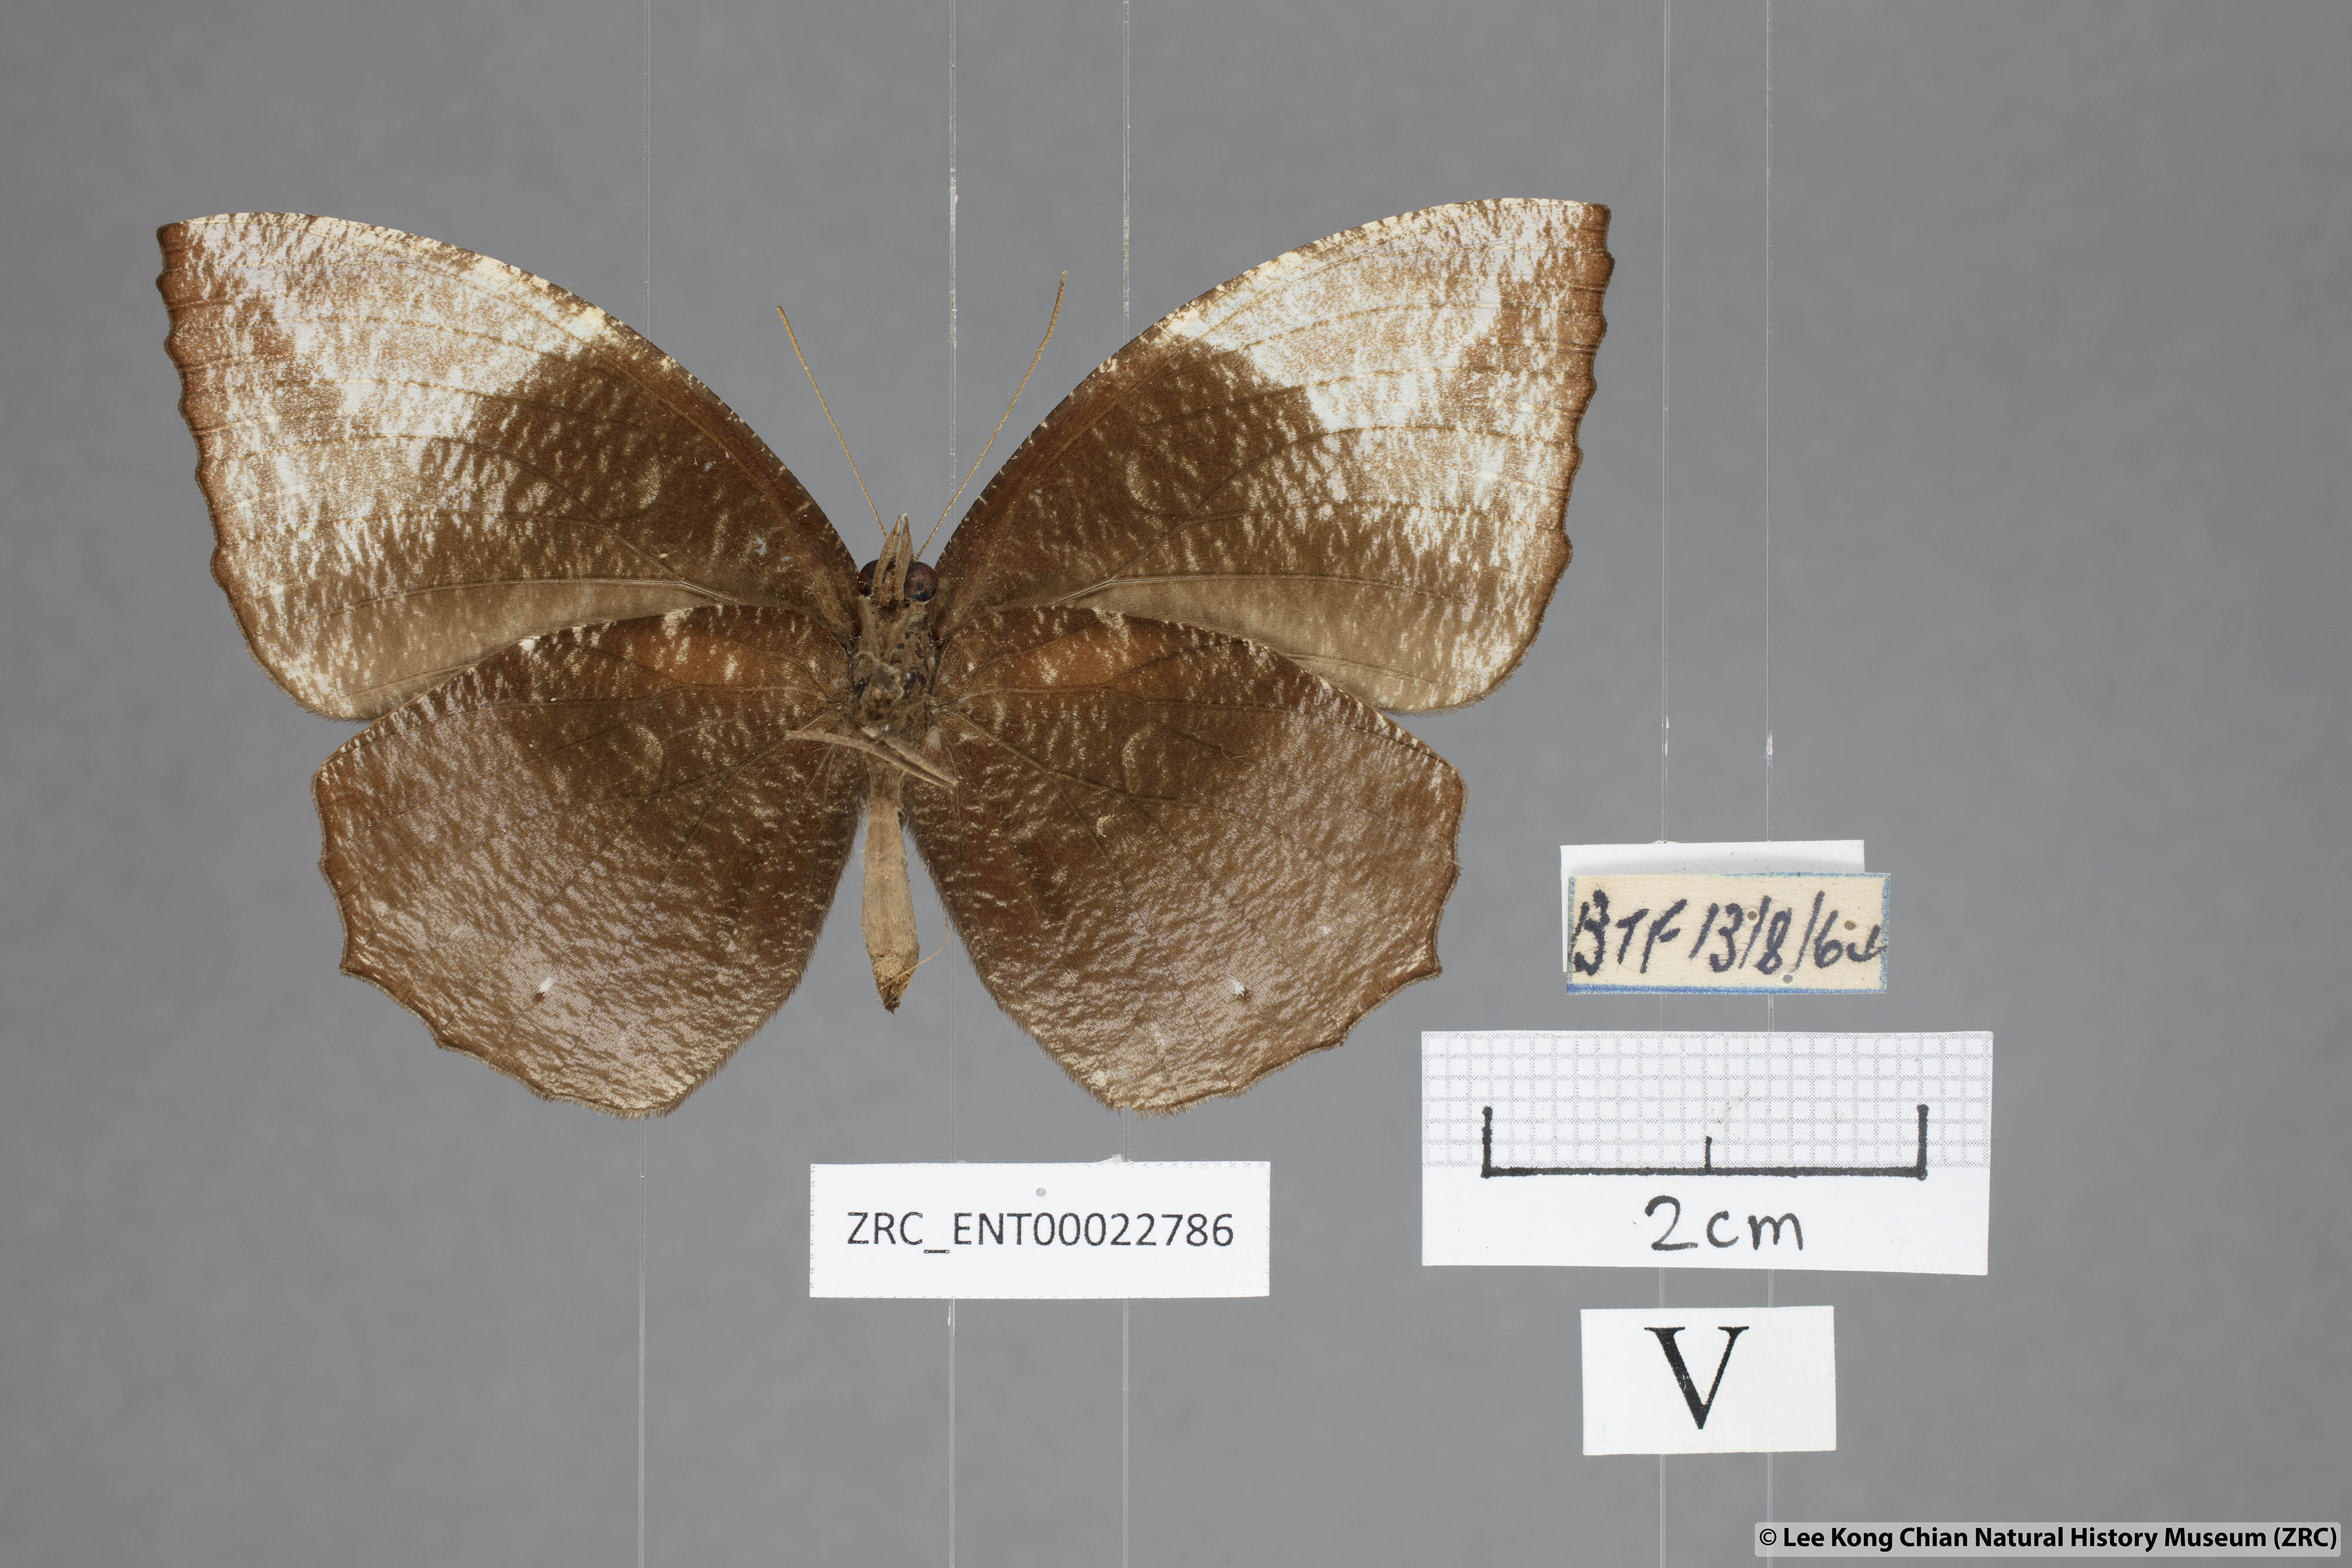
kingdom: Animalia
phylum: Arthropoda
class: Insecta
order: Lepidoptera
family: Nymphalidae
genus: Elymnias
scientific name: Elymnias penanga
